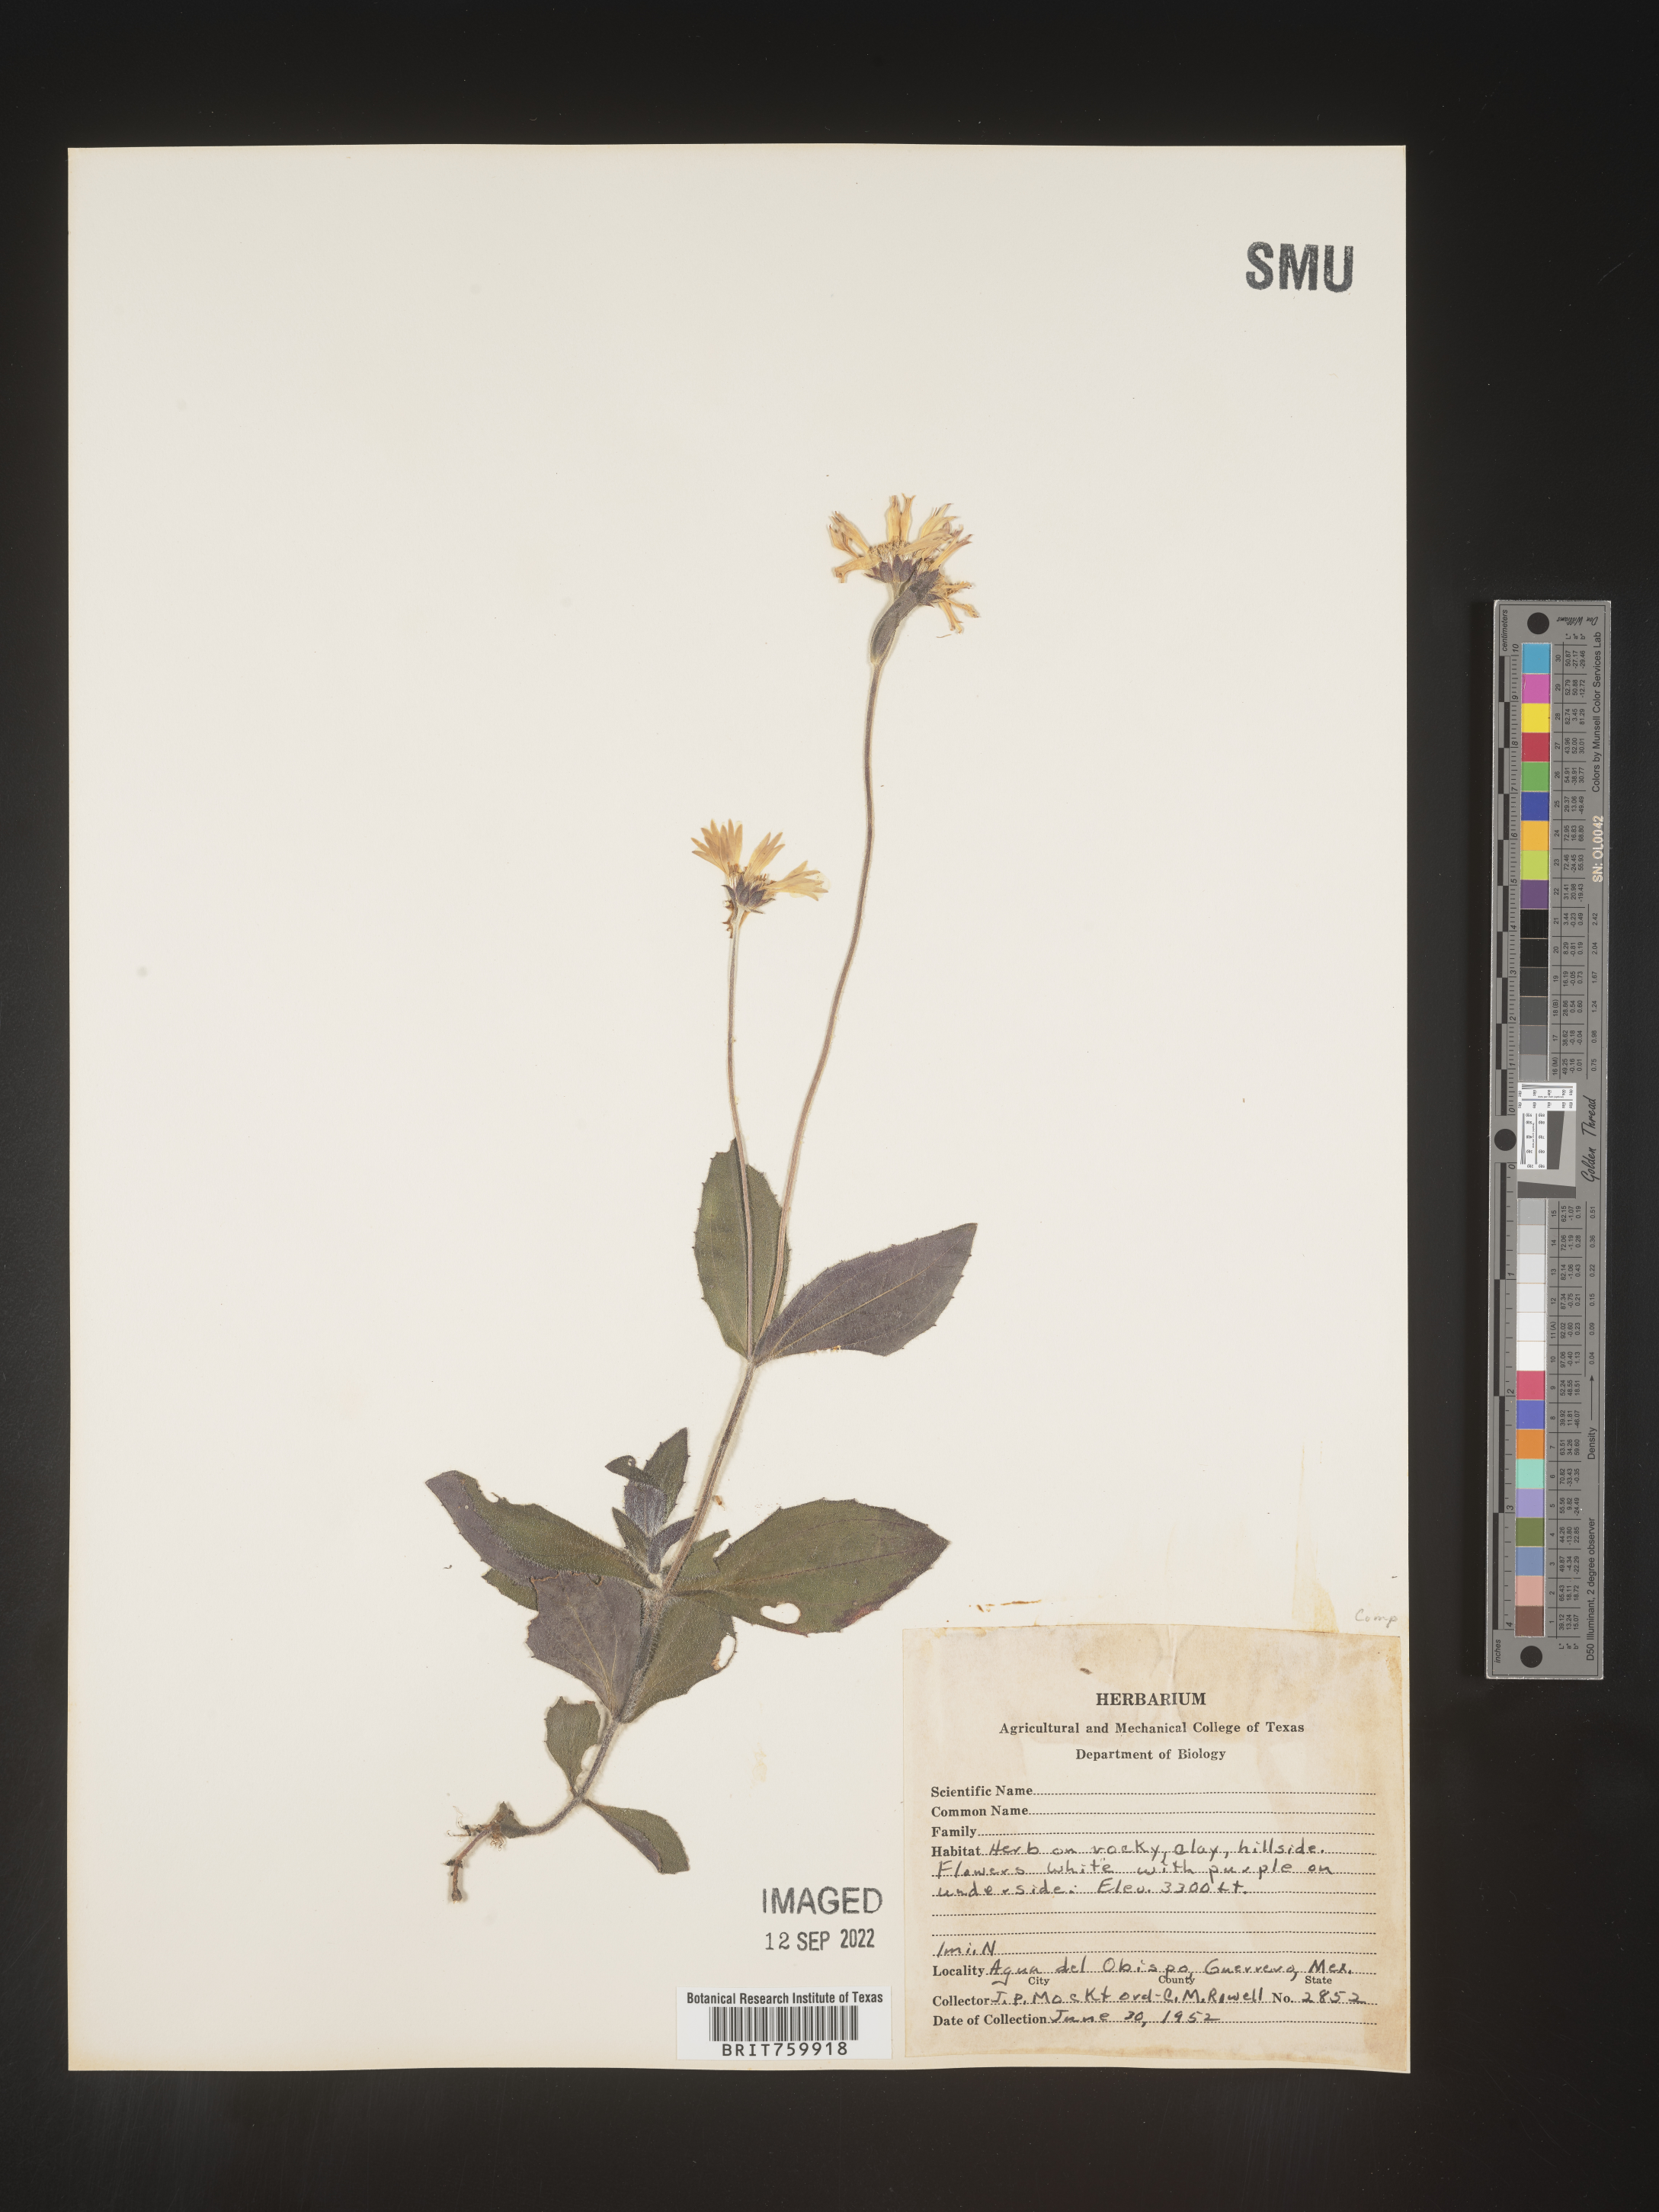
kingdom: Plantae
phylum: Tracheophyta
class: Magnoliopsida
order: Asterales
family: Asteraceae
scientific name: Asteraceae
